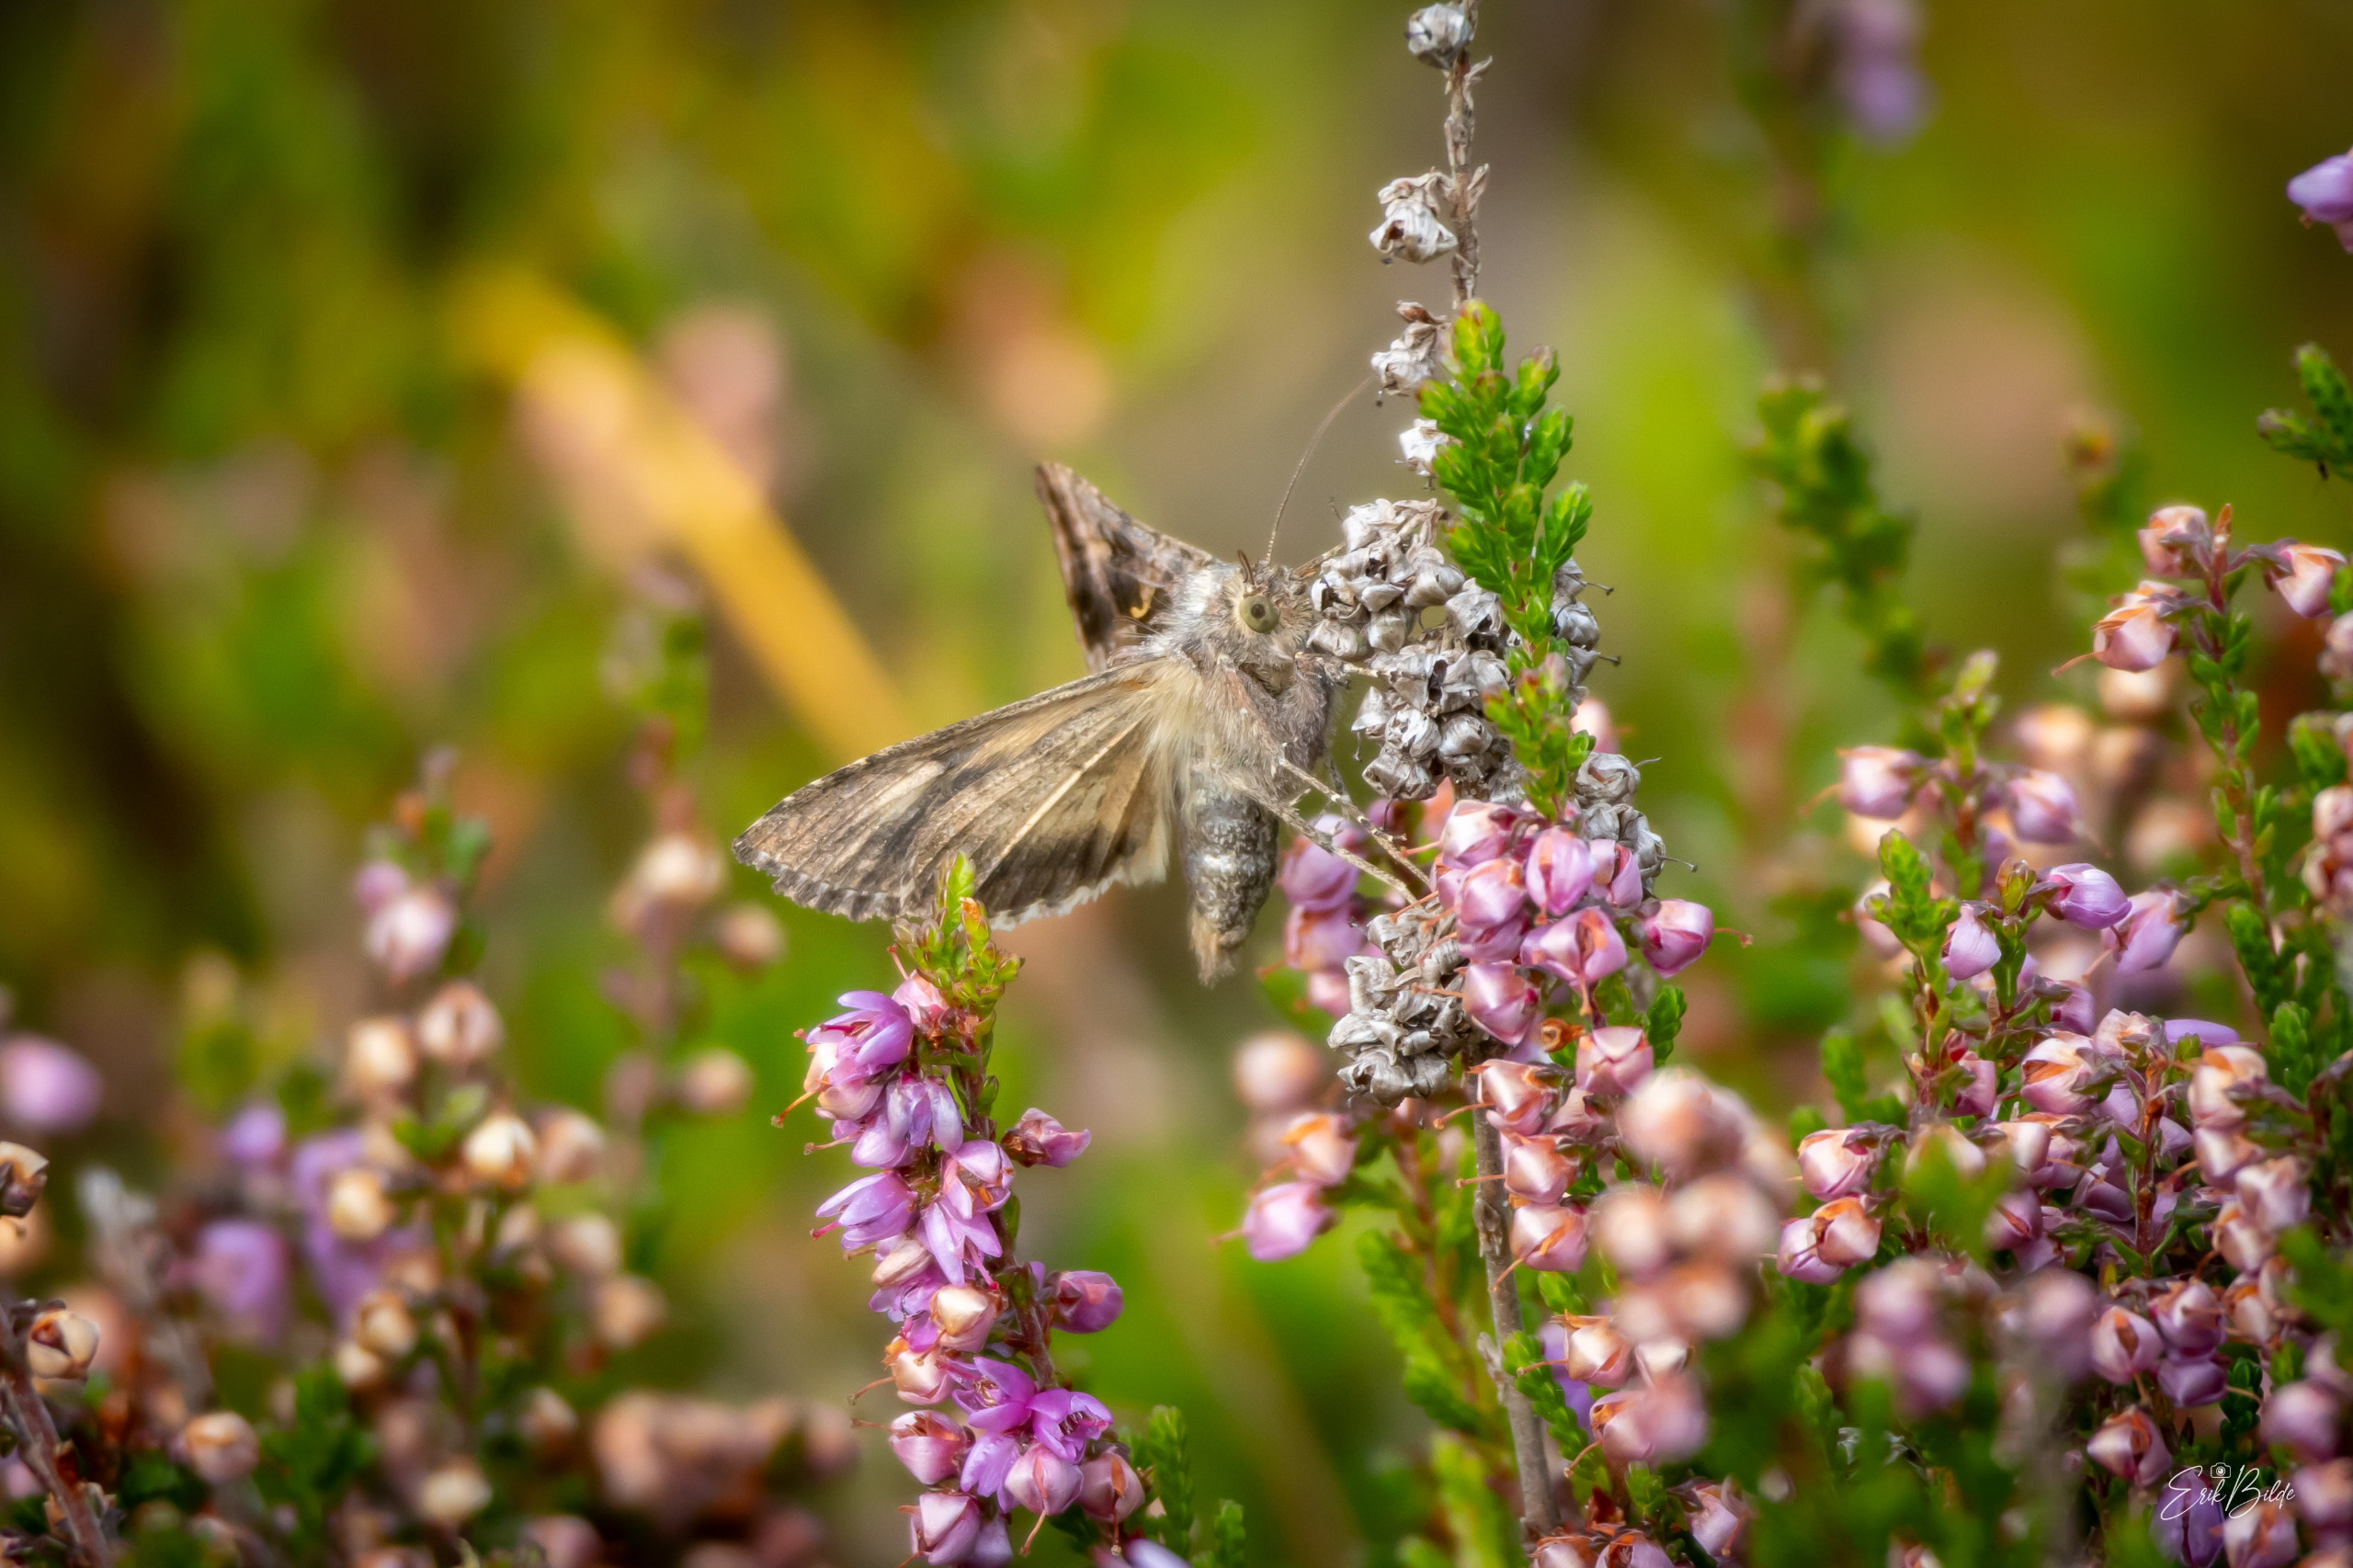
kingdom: Animalia
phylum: Arthropoda
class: Insecta
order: Lepidoptera
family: Noctuidae
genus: Autographa
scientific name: Autographa gamma
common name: Gammaugle
